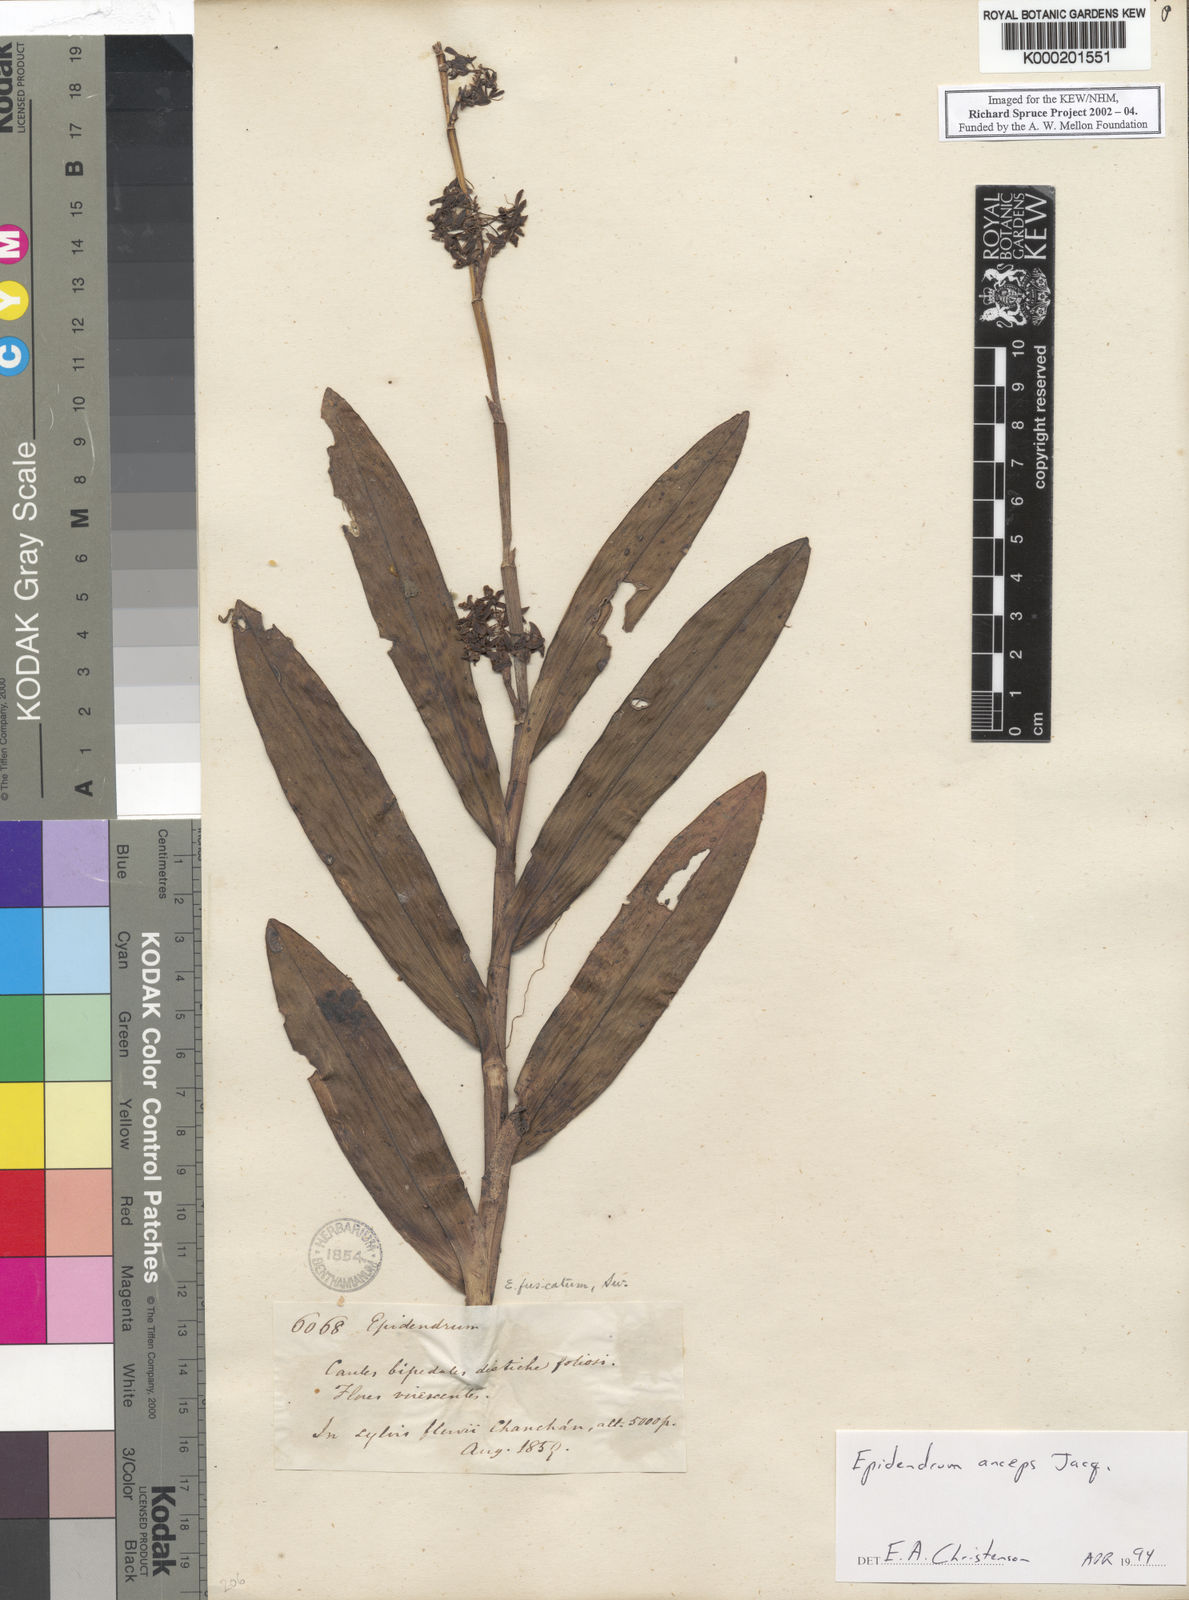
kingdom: Plantae
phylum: Tracheophyta
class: Liliopsida
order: Asparagales
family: Orchidaceae
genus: Epidendrum
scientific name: Epidendrum anceps
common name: Brown-flower butterfly orchid
